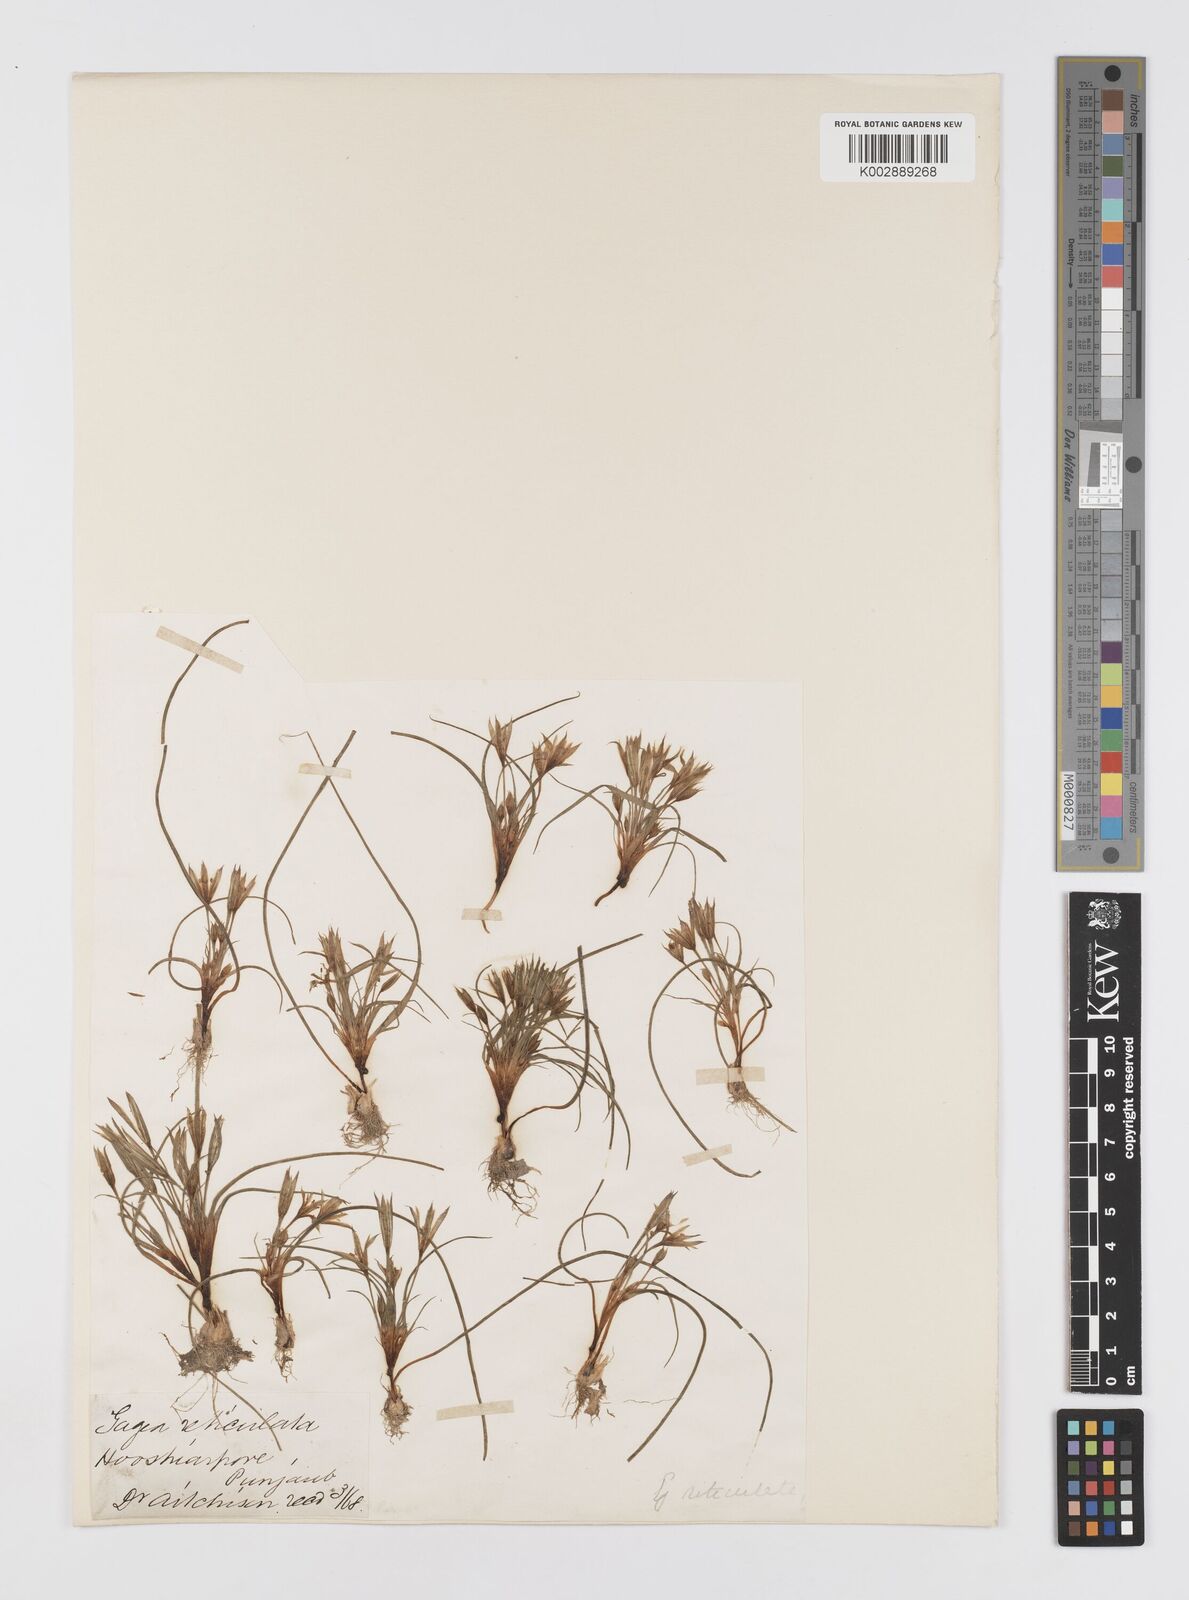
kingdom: Plantae
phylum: Tracheophyta
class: Liliopsida
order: Liliales
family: Liliaceae
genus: Gagea
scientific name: Gagea reticulata
